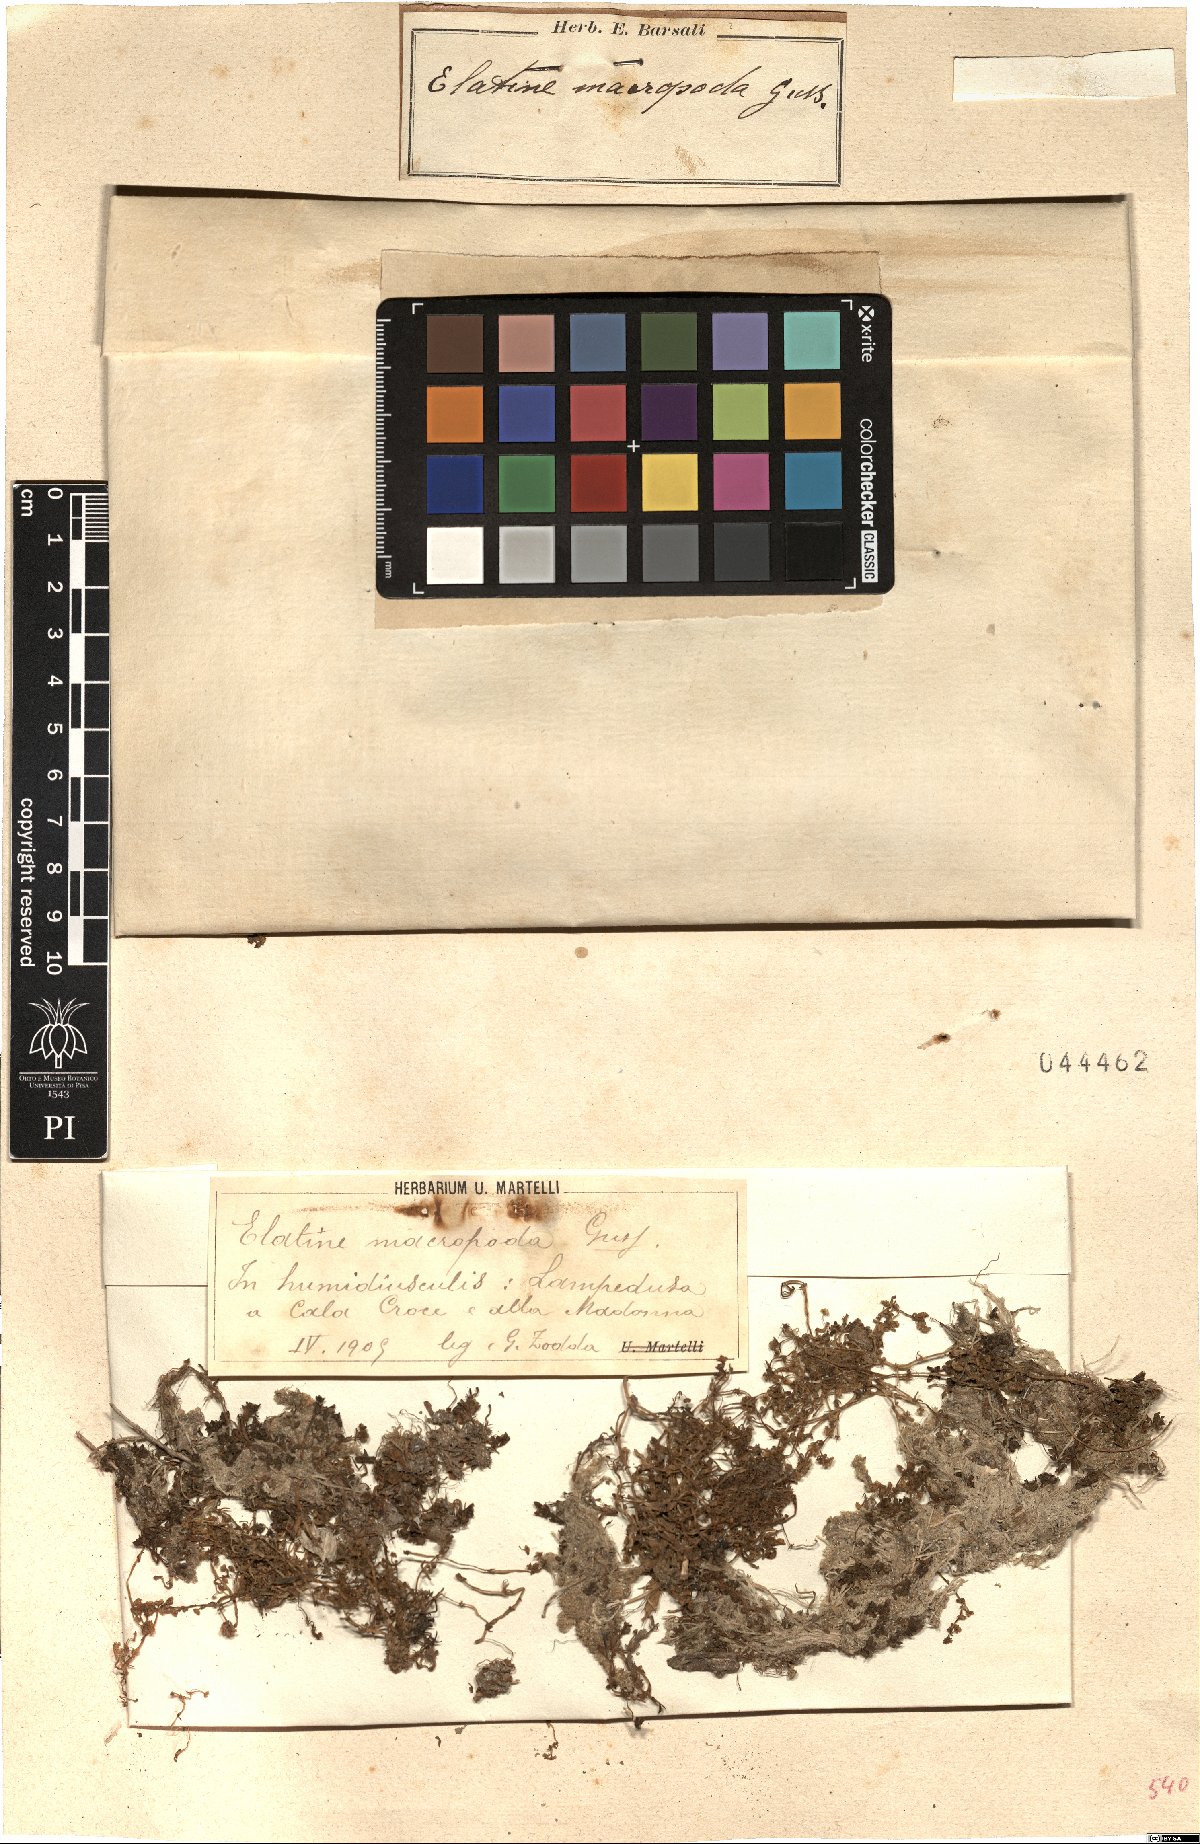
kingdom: Plantae
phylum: Tracheophyta
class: Magnoliopsida
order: Malpighiales
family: Elatinaceae
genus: Elatine
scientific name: Elatine macropoda
